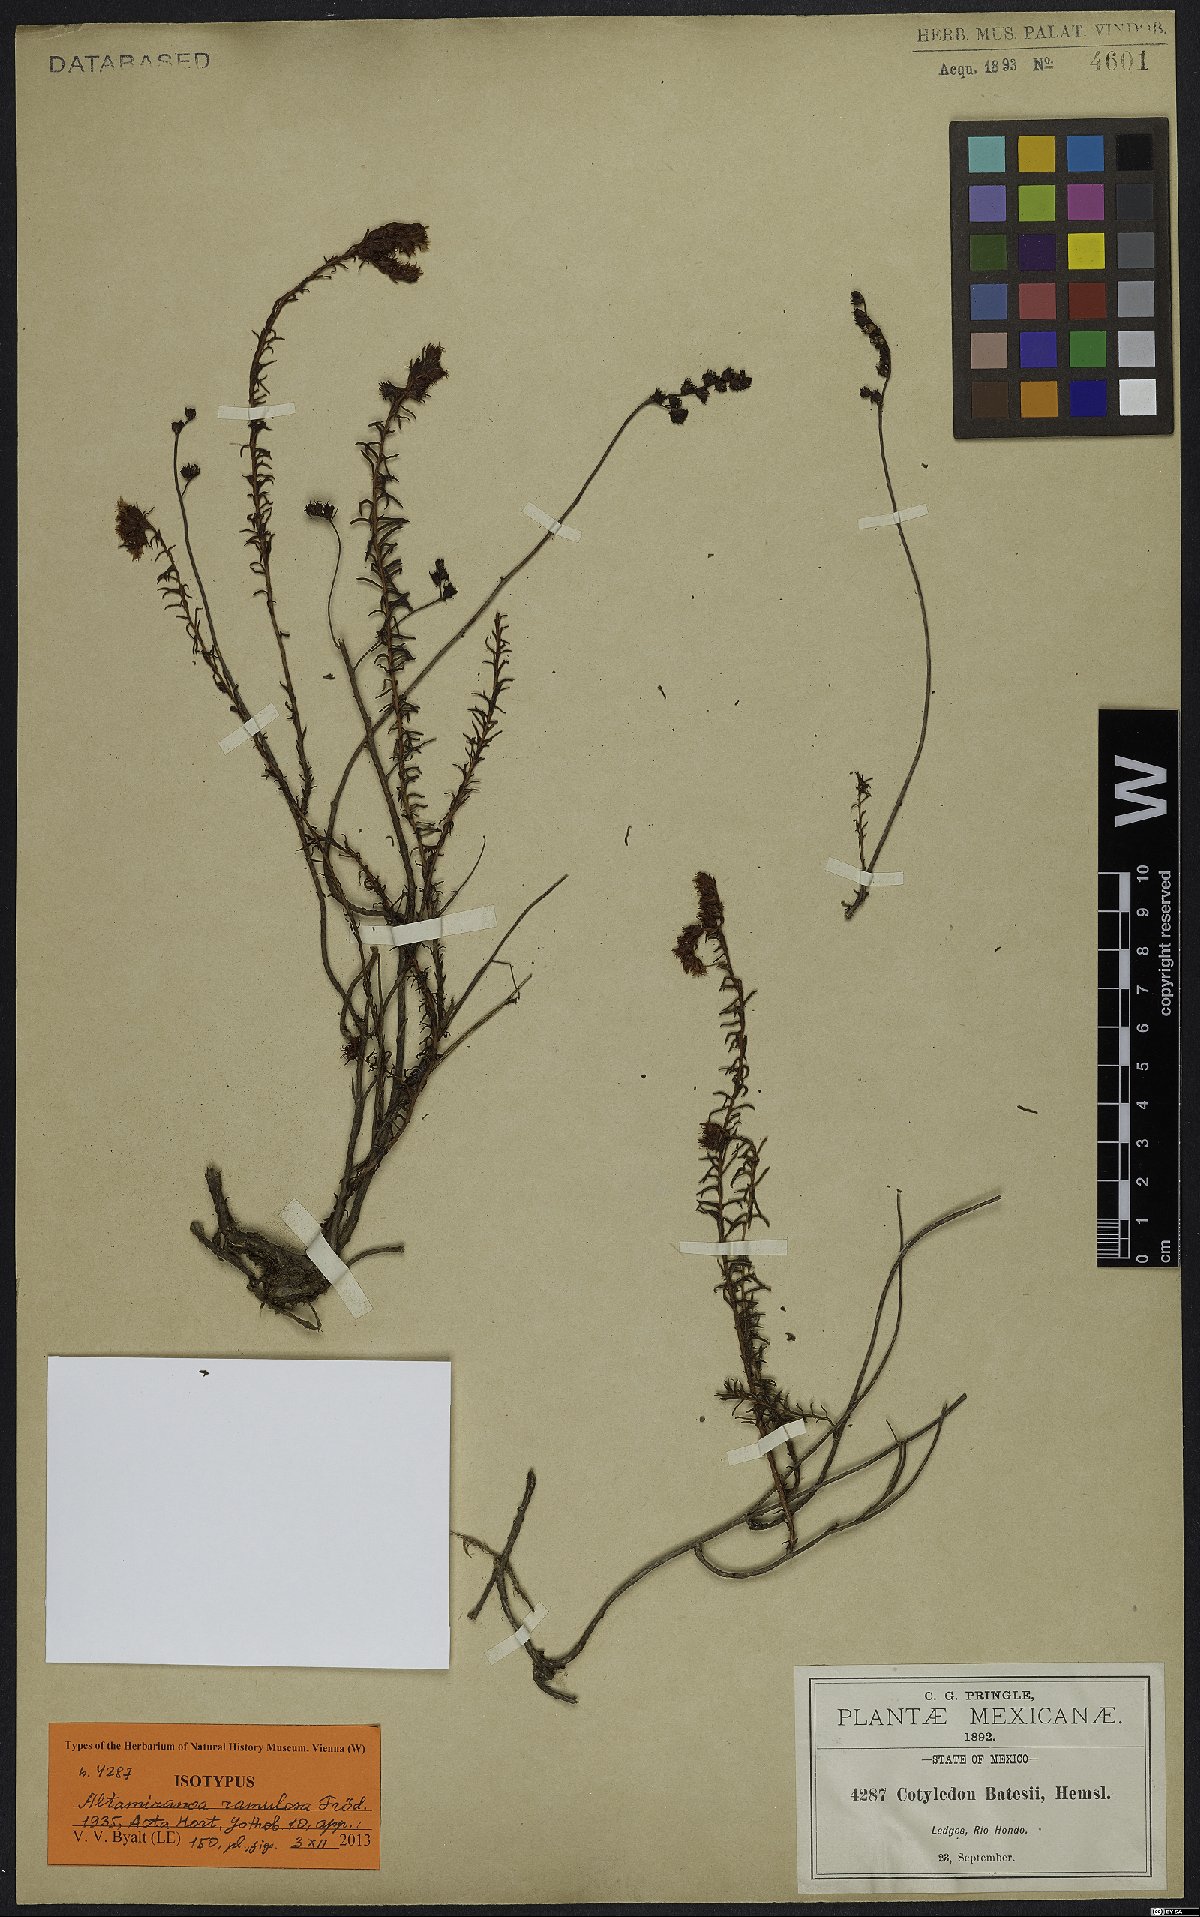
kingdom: Plantae
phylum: Tracheophyta
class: Magnoliopsida
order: Saxifragales
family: Crassulaceae
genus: Sedum
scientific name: Sedum goldmanii
